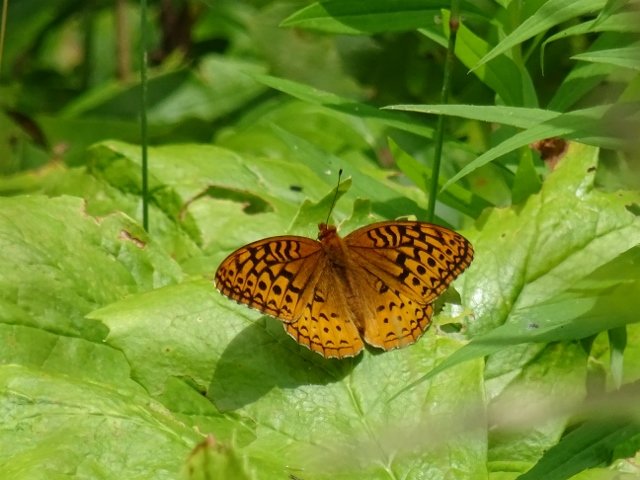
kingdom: Animalia
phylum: Arthropoda
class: Insecta
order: Lepidoptera
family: Nymphalidae
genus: Speyeria
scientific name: Speyeria cybele
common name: Great Spangled Fritillary
